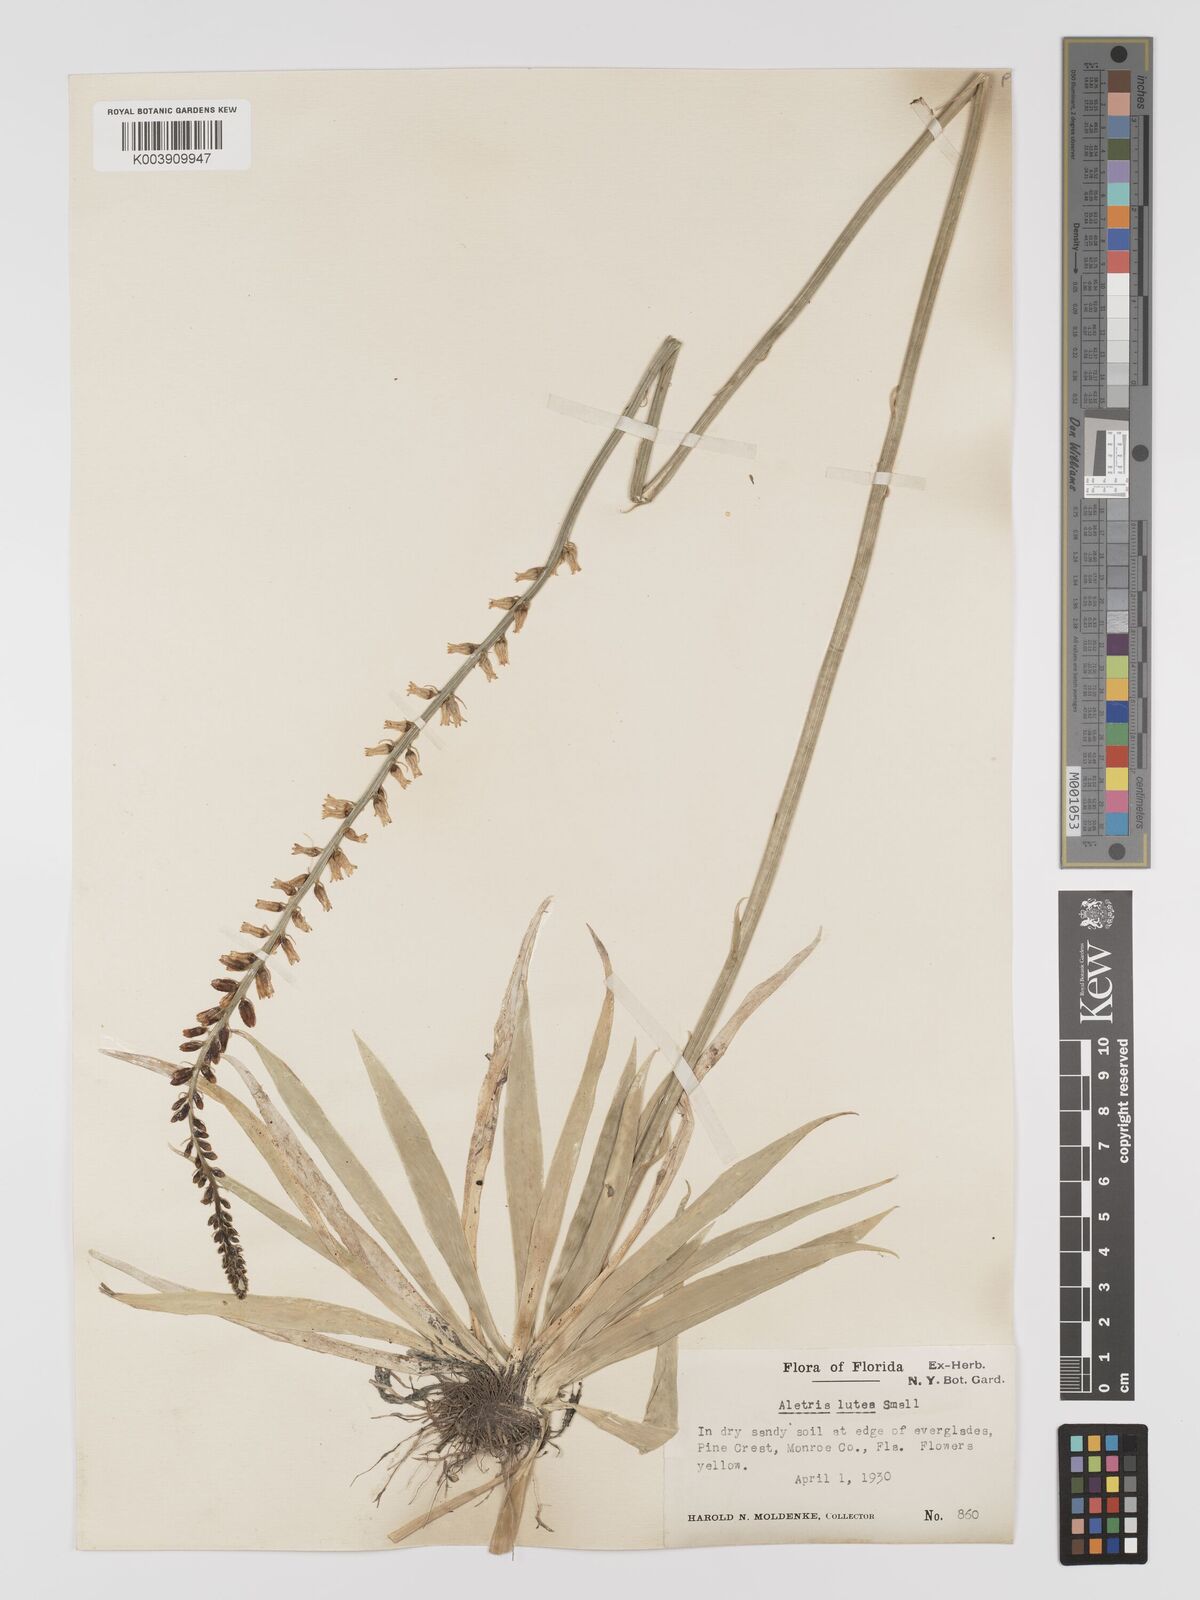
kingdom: Plantae
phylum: Tracheophyta
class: Liliopsida
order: Dioscoreales
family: Nartheciaceae
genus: Aletris
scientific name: Aletris lutea
